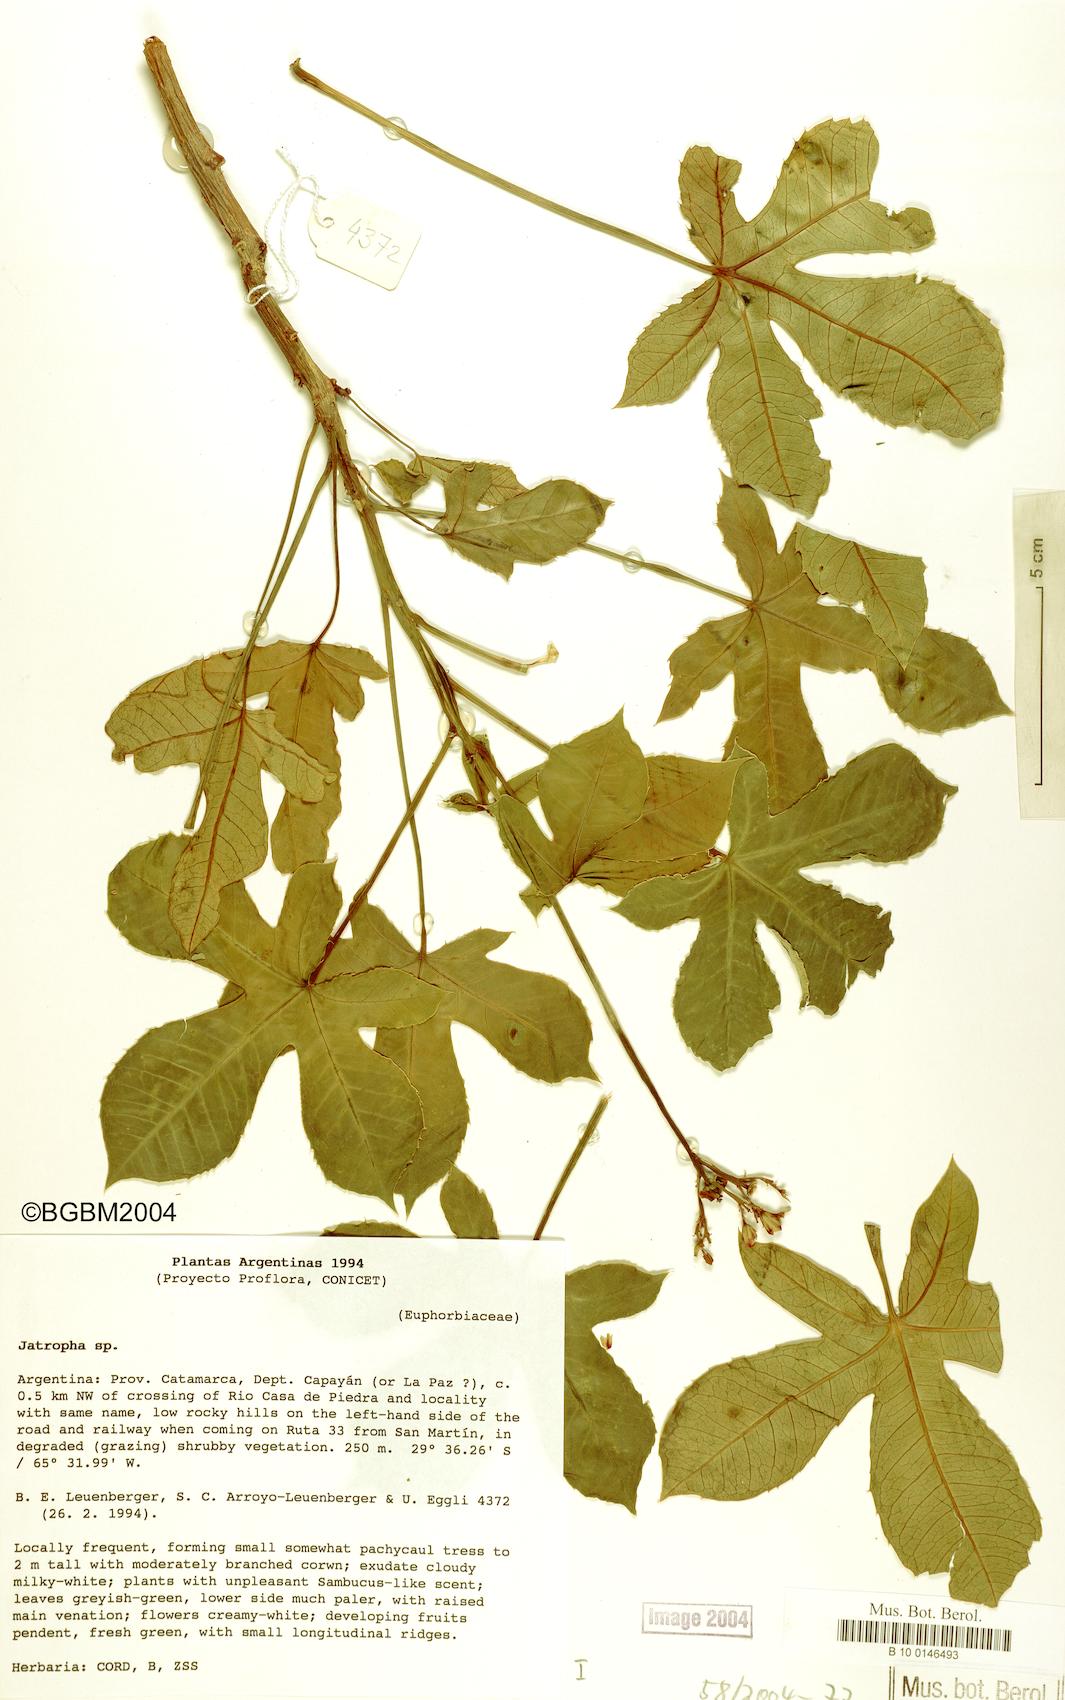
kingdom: Plantae
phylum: Tracheophyta
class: Magnoliopsida
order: Malpighiales
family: Euphorbiaceae
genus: Jatropha
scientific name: Jatropha hieronymi
